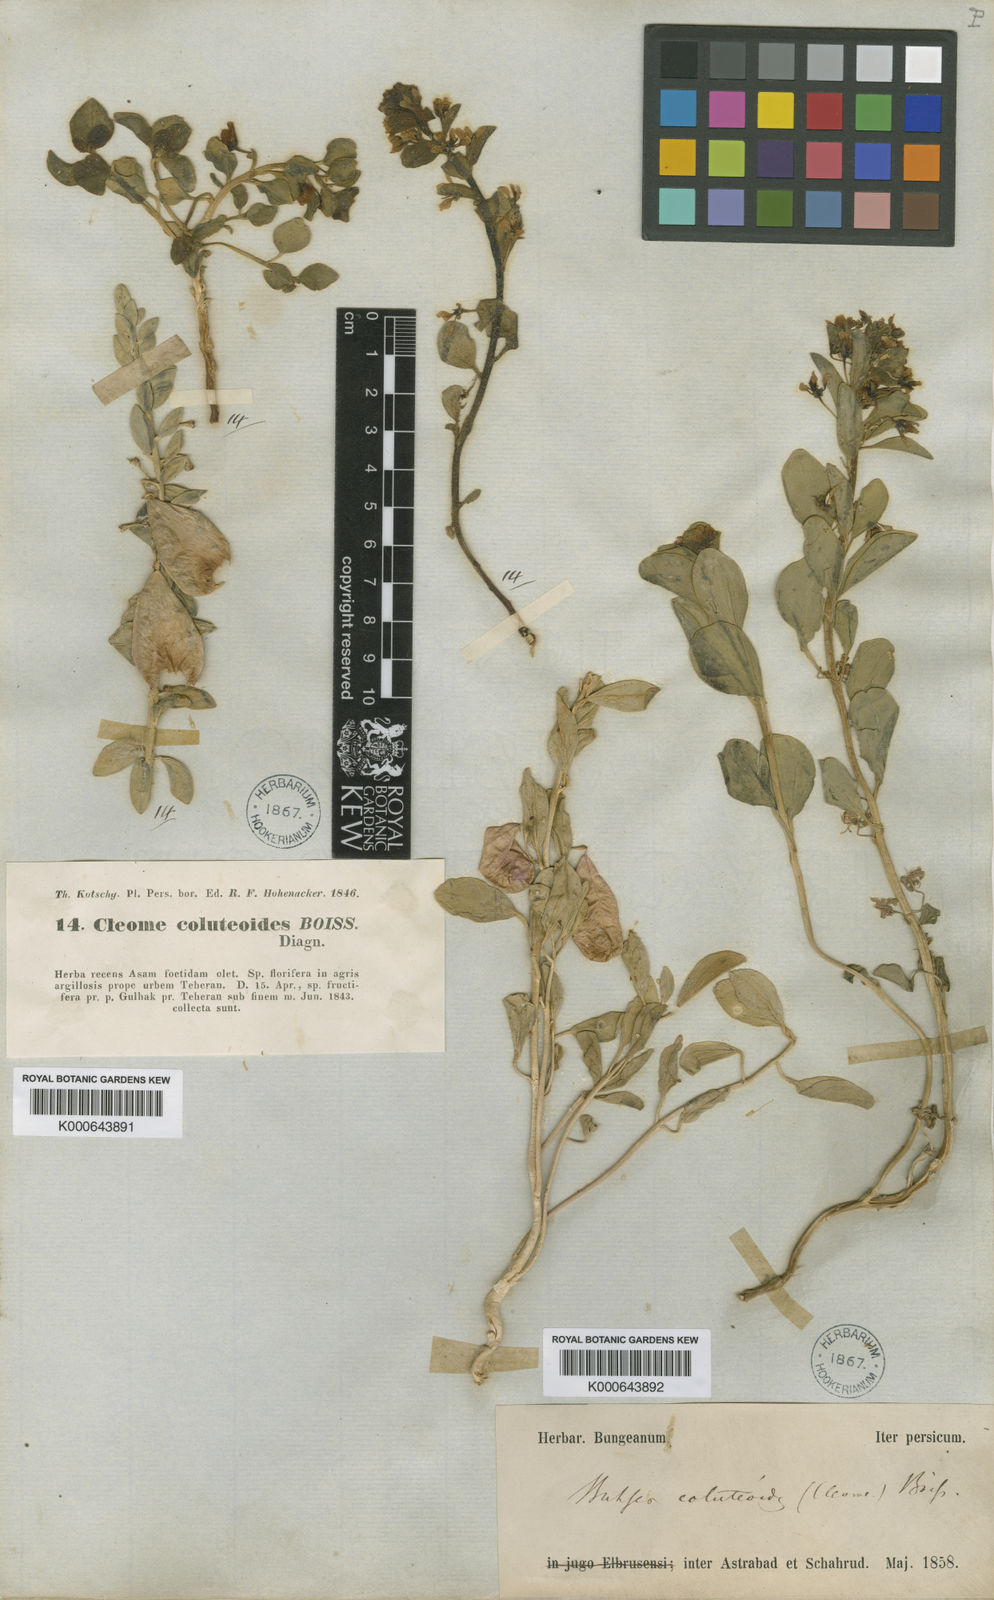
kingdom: Plantae
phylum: Tracheophyta
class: Magnoliopsida
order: Brassicales
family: Cleomaceae
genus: Cleome
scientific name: Cleome coluteoides
